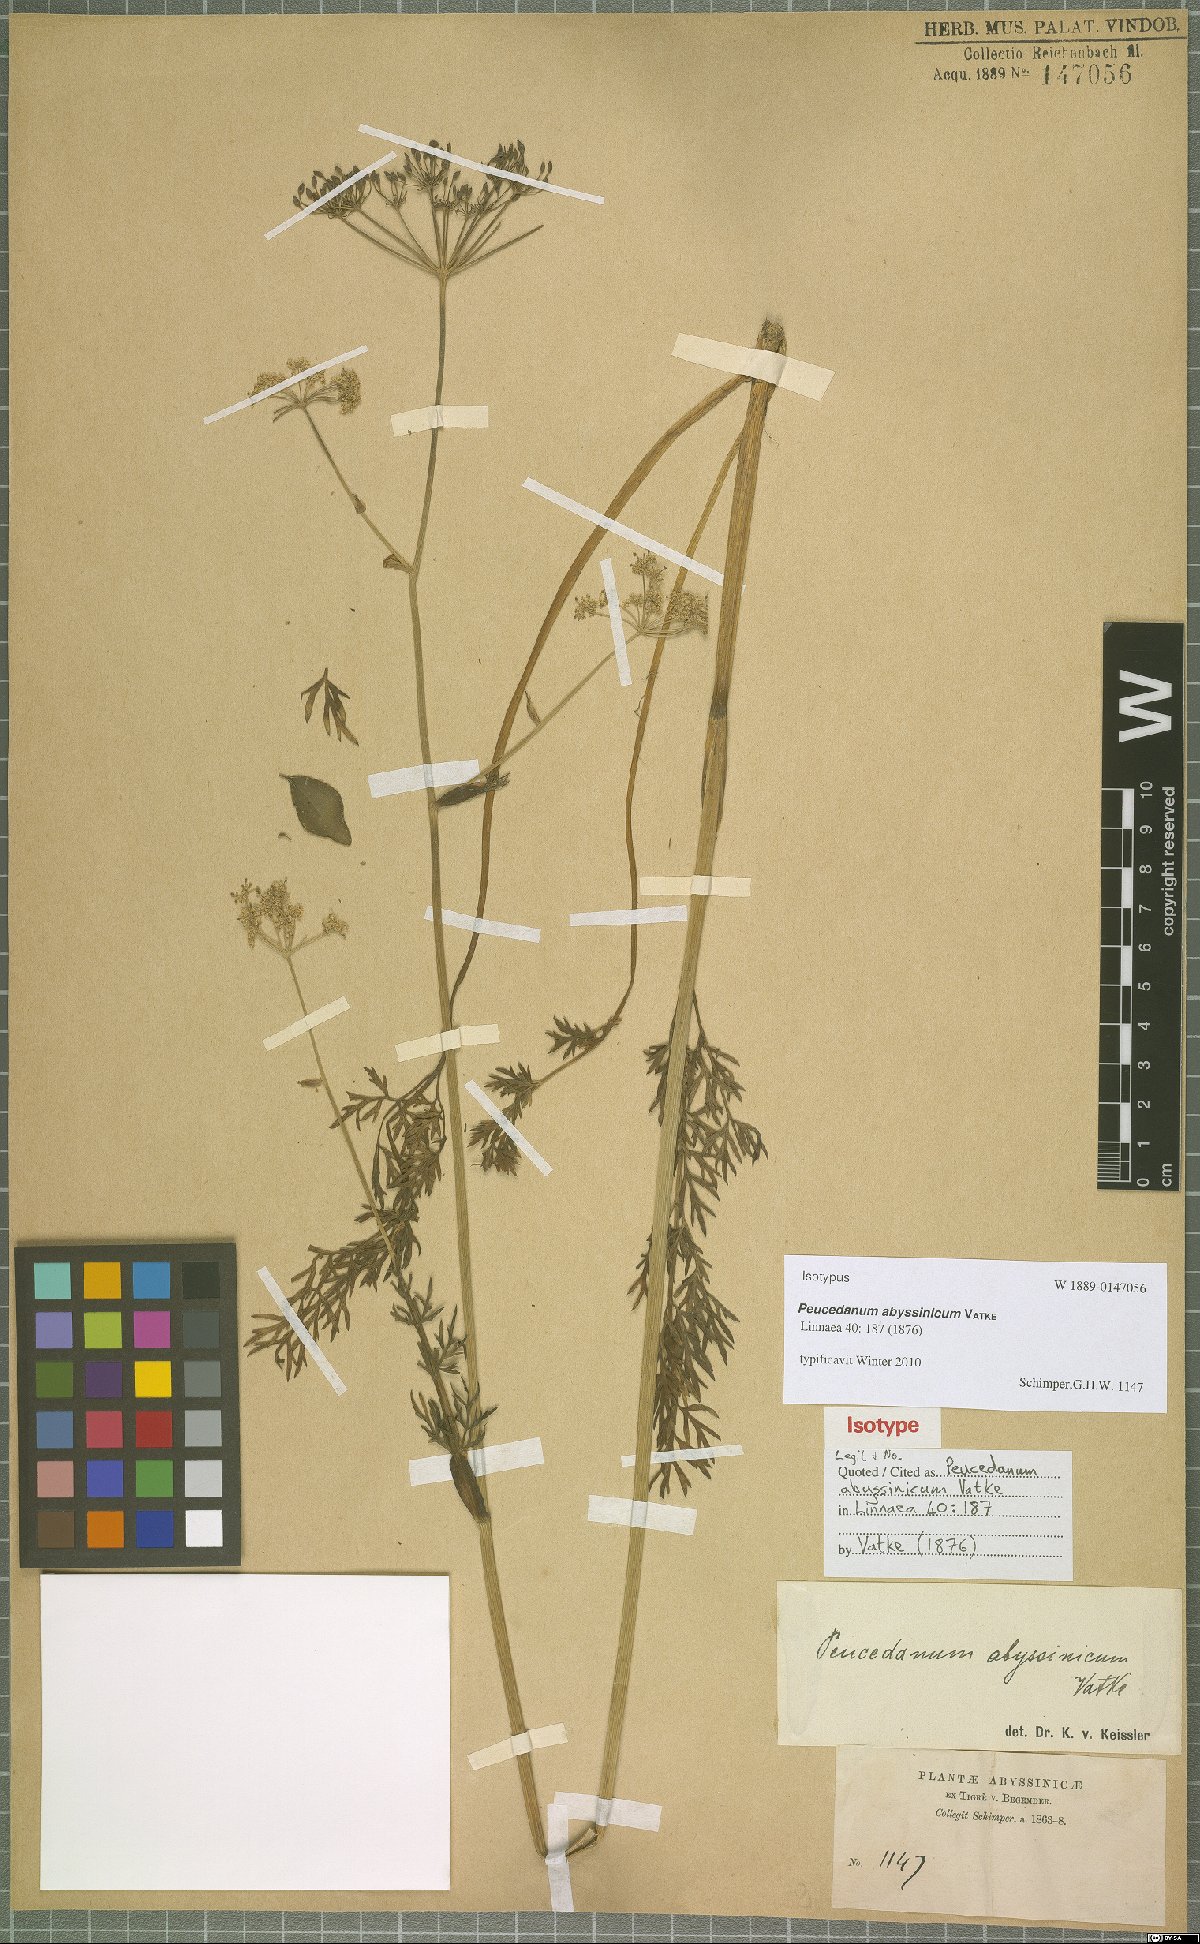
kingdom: Plantae
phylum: Tracheophyta
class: Magnoliopsida
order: Apiales
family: Apiaceae
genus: Afrosciadium
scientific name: Afrosciadium abyssinicum
